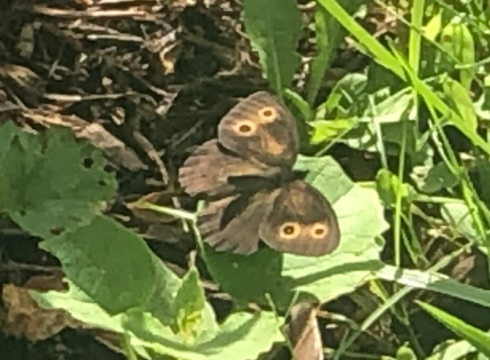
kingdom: Animalia
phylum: Arthropoda
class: Insecta
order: Lepidoptera
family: Nymphalidae
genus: Cercyonis
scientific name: Cercyonis pegala
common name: Common Wood-Nymph
